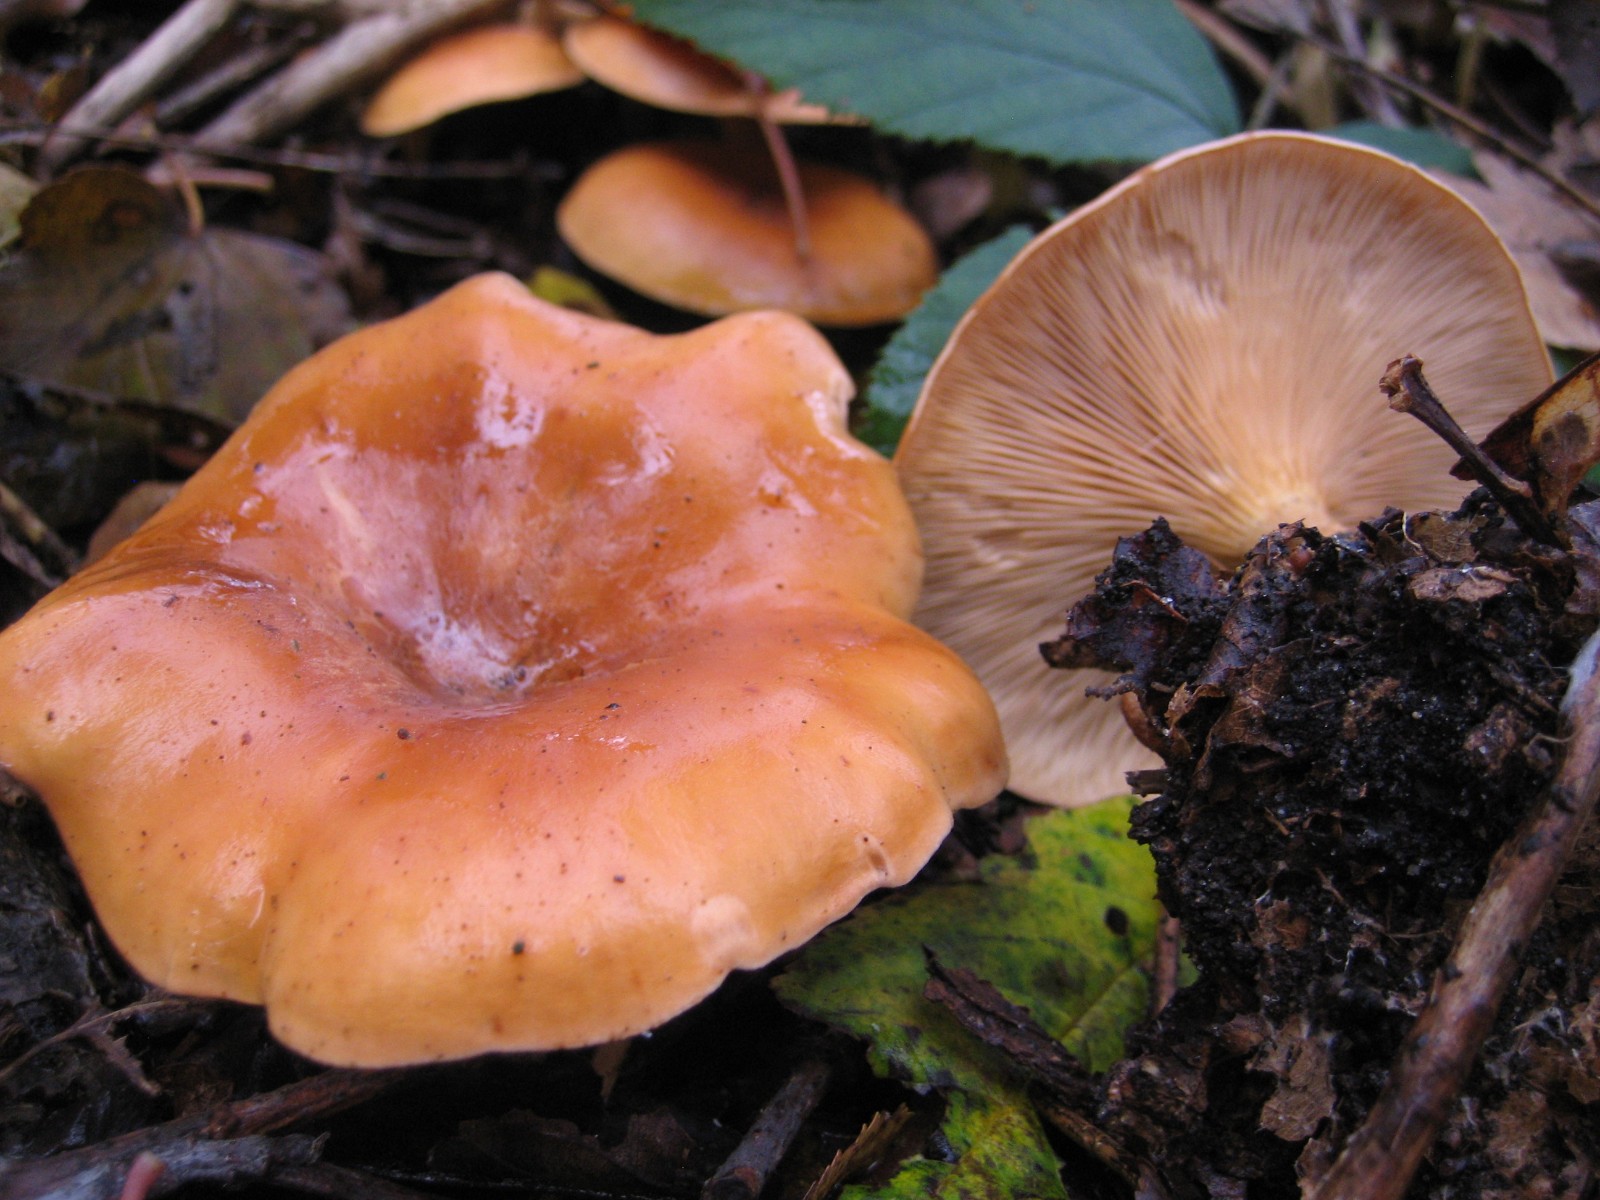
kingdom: Fungi
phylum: Basidiomycota
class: Agaricomycetes
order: Agaricales
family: Tricholomataceae
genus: Paralepista
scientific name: Paralepista flaccida
